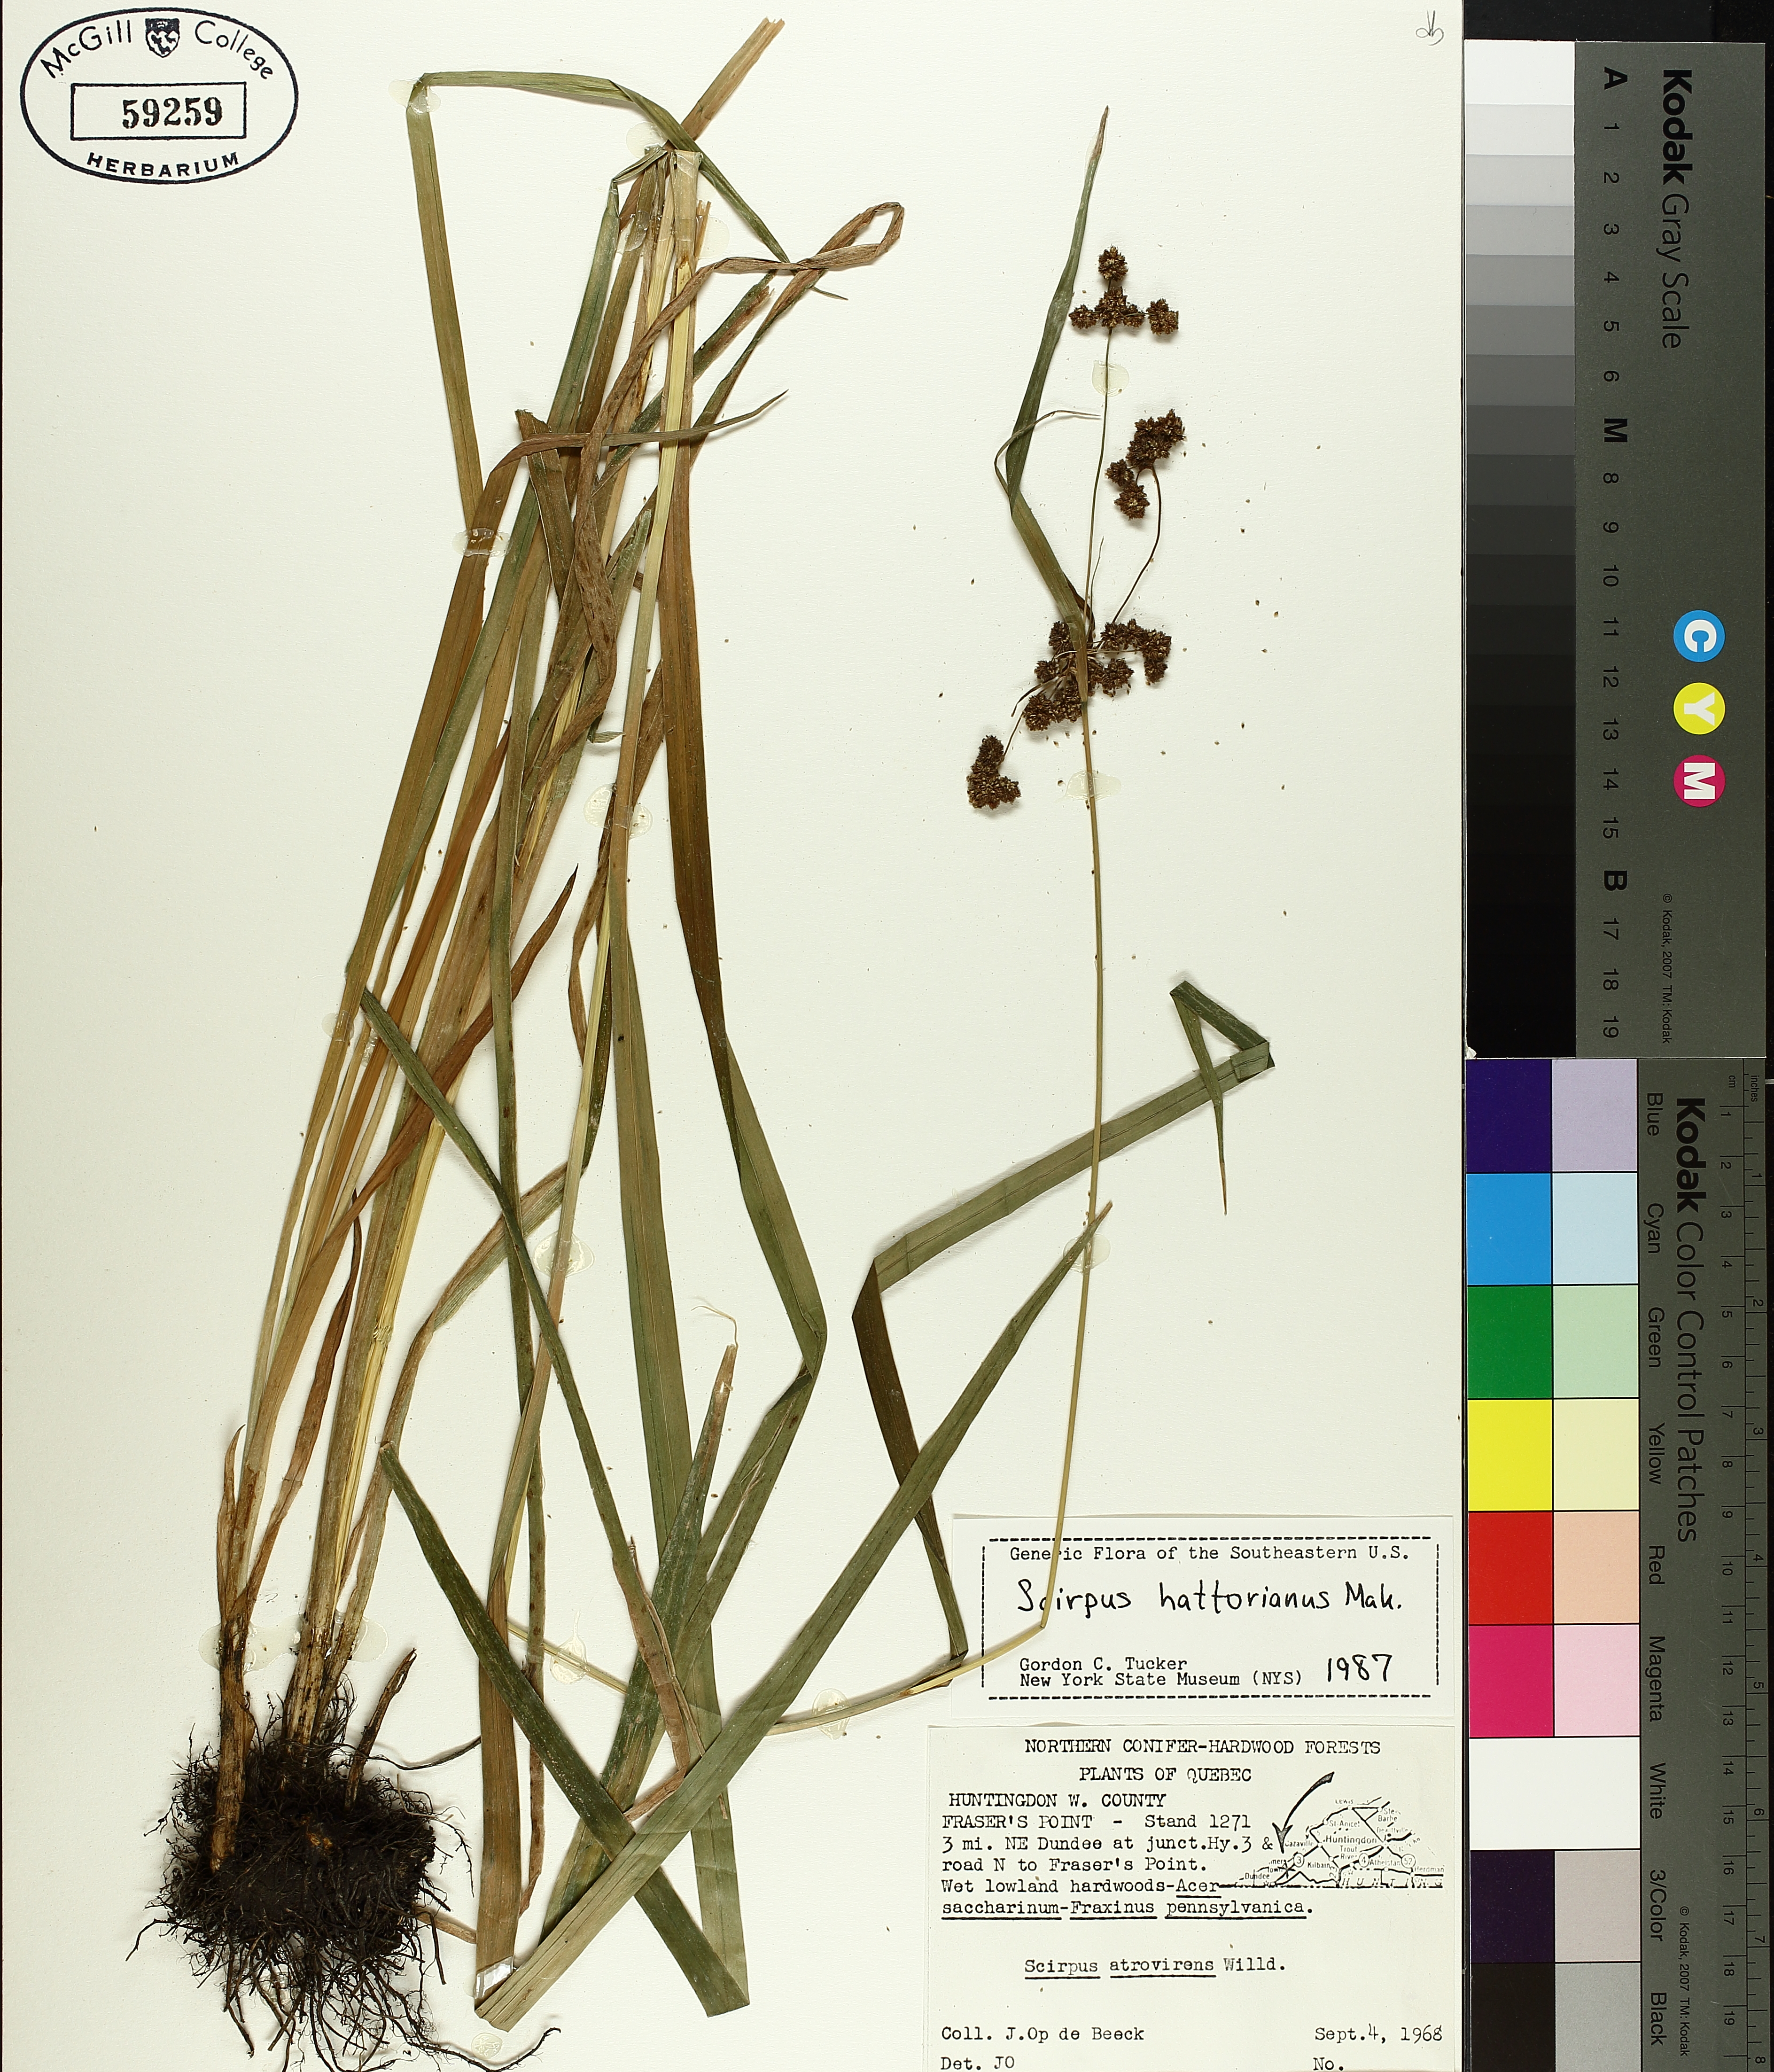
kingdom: Plantae
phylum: Tracheophyta
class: Liliopsida
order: Poales
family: Cyperaceae
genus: Scirpus
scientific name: Scirpus hattorianus
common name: Early dark-green bulrush
